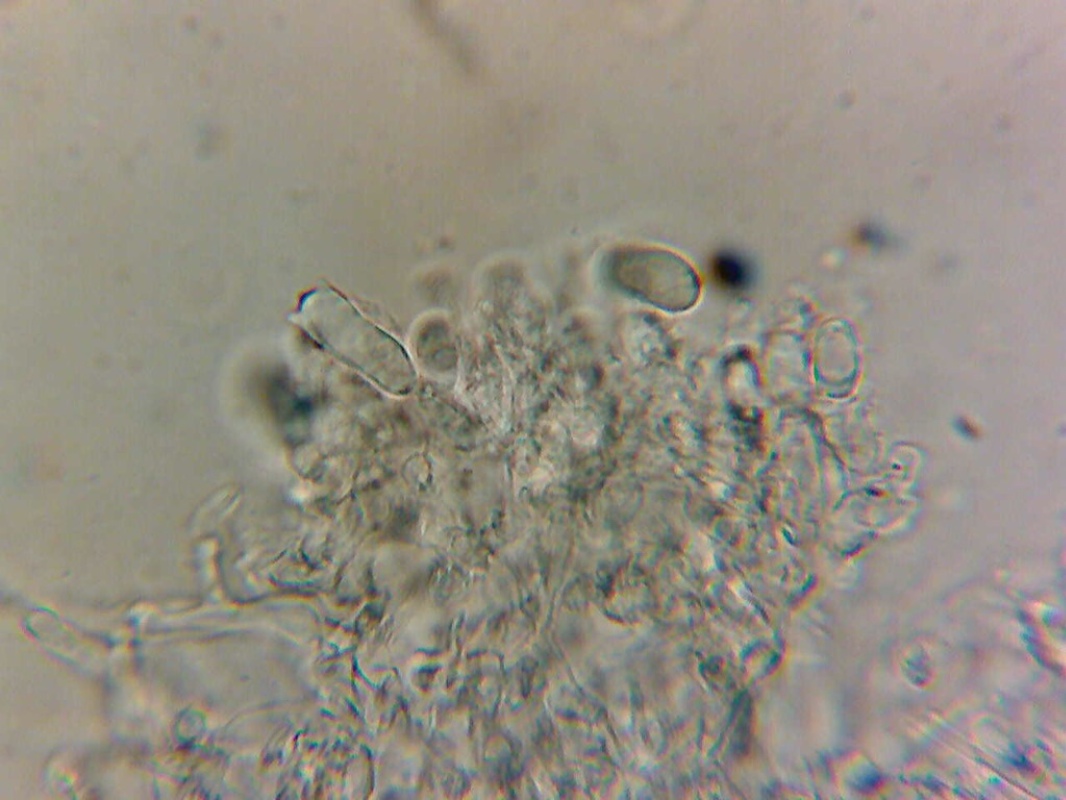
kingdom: Fungi
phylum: Basidiomycota
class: Agaricomycetes
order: Trechisporales
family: Hydnodontaceae
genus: Brevicellicium
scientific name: Brevicellicium olivascens
